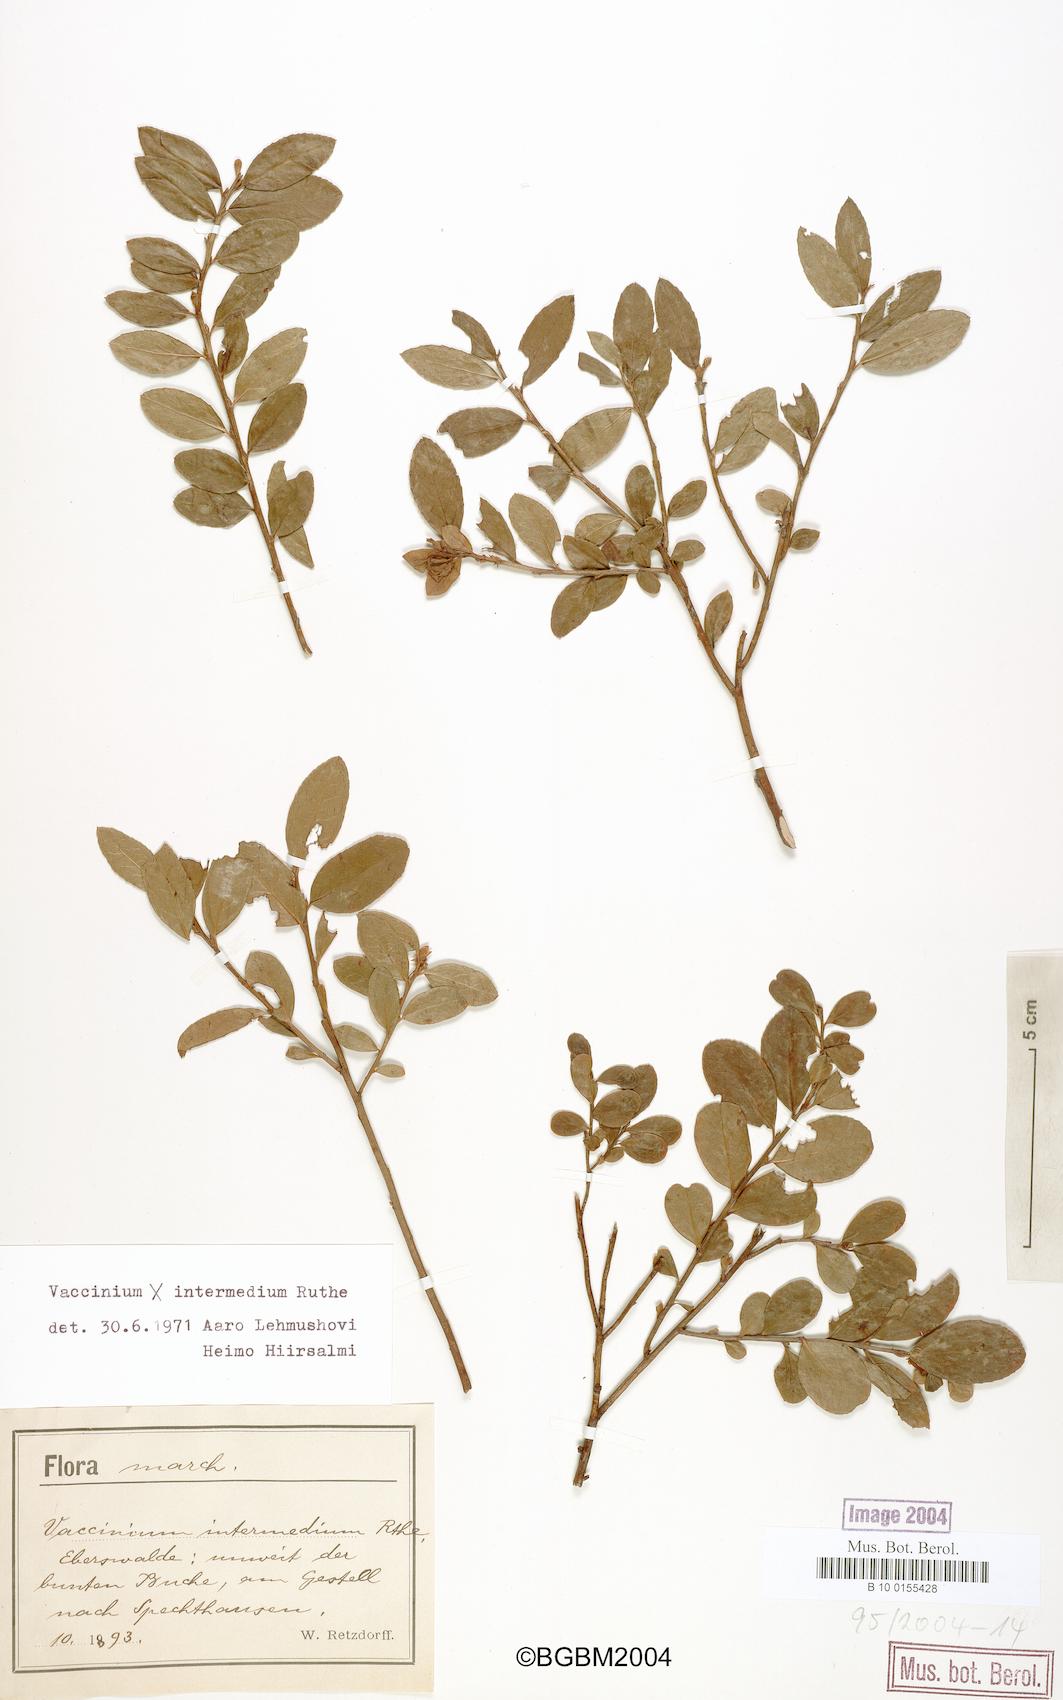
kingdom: Plantae
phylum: Tracheophyta
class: Magnoliopsida
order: Ericales
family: Ericaceae
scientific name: Ericaceae
